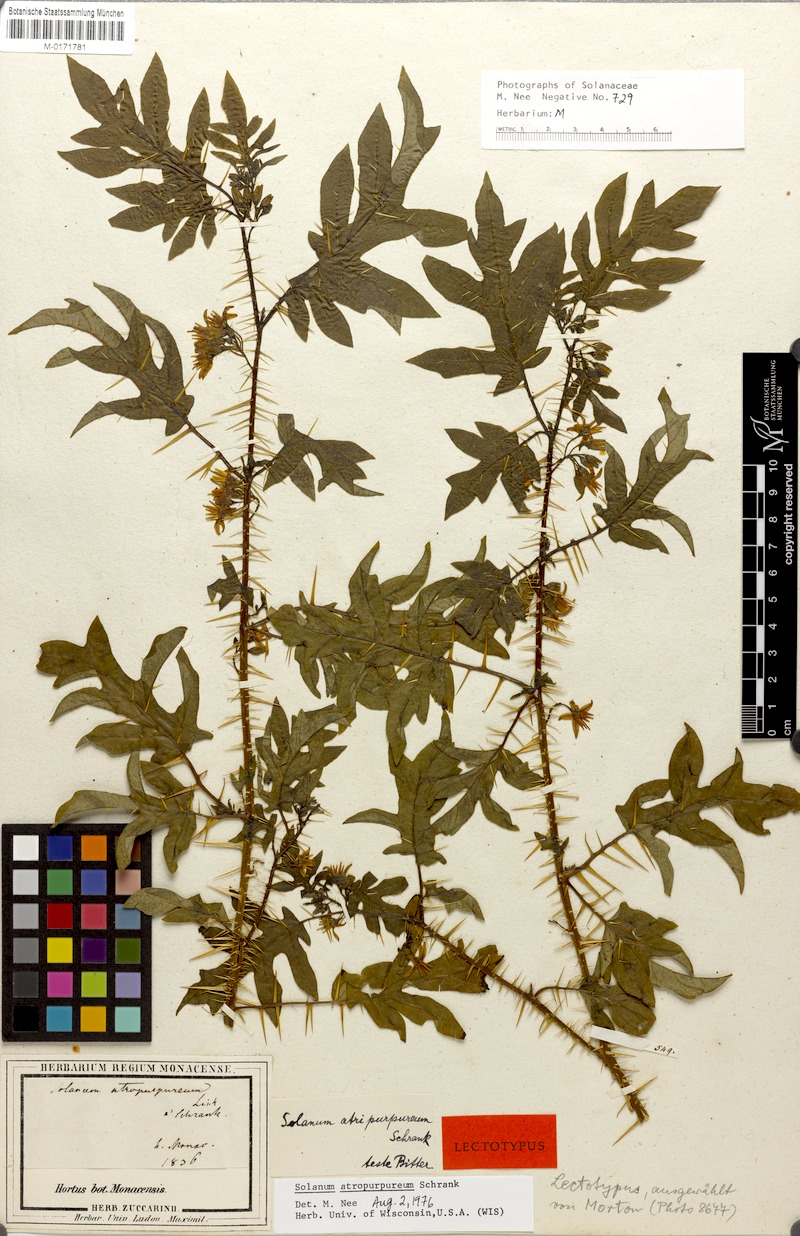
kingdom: Plantae
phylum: Tracheophyta
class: Magnoliopsida
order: Solanales
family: Solanaceae
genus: Solanum
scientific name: Solanum atropurpureum
